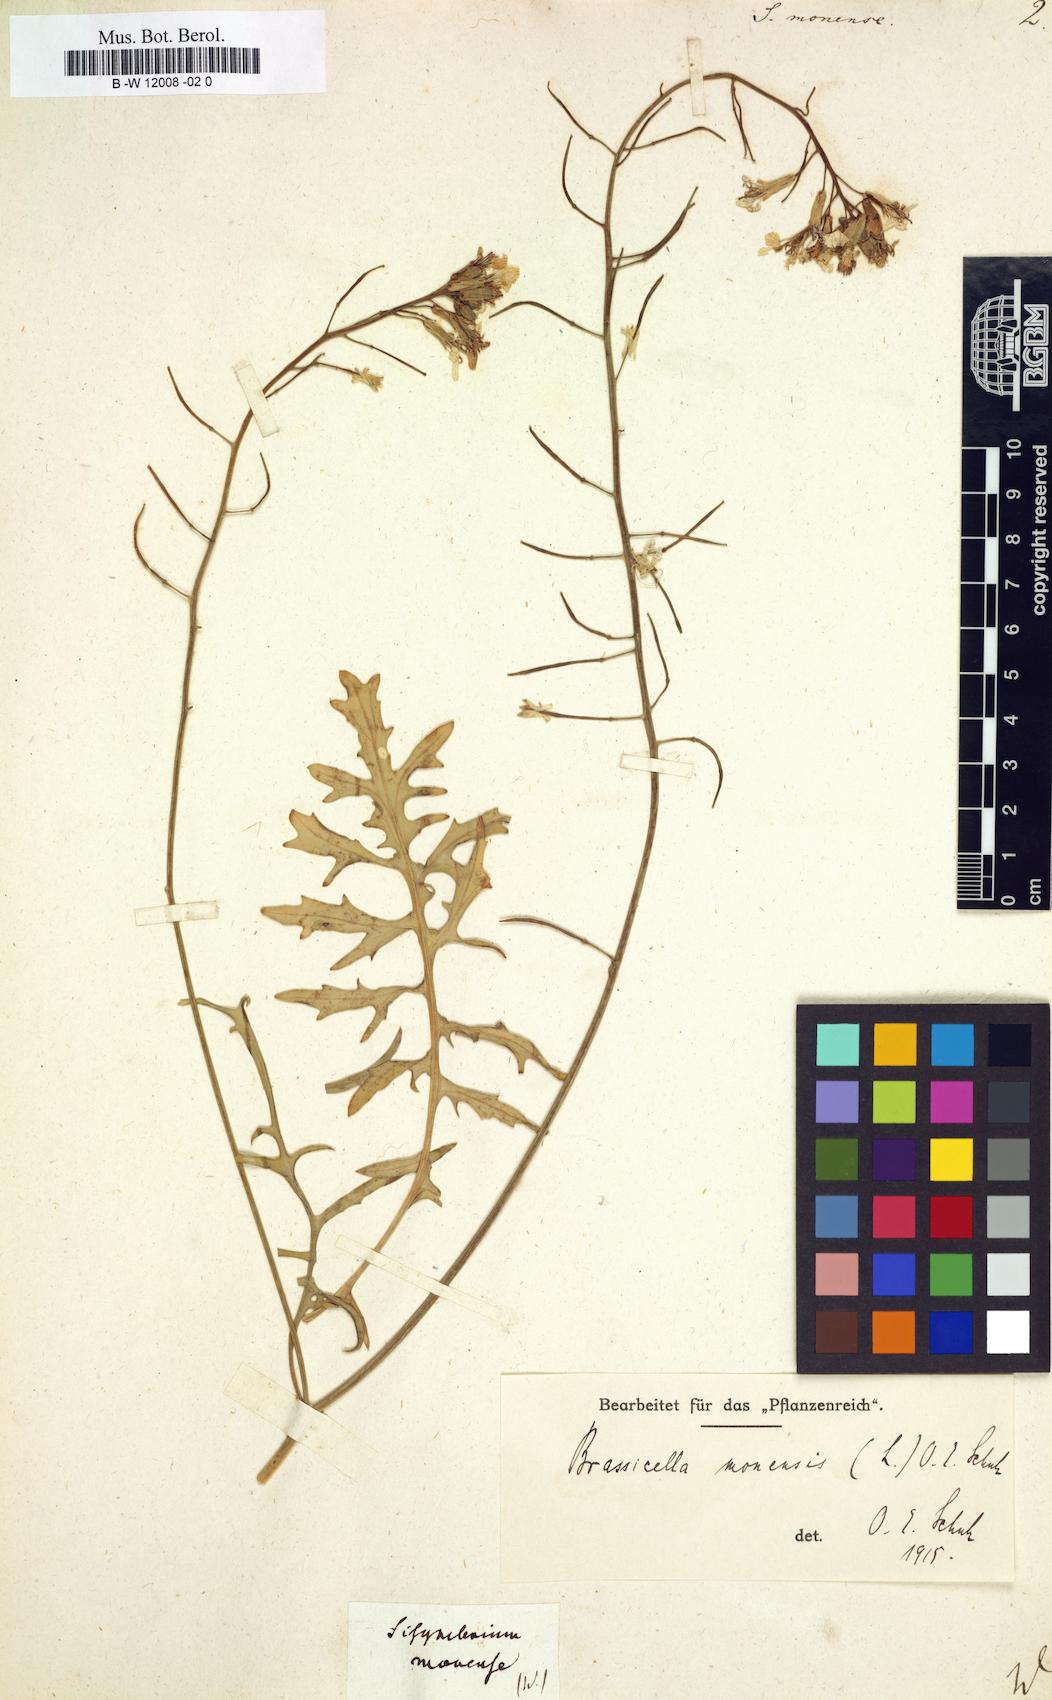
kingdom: Plantae
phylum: Tracheophyta
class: Magnoliopsida
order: Brassicales
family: Brassicaceae
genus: Sisymbrium
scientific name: Sisymbrium monense
